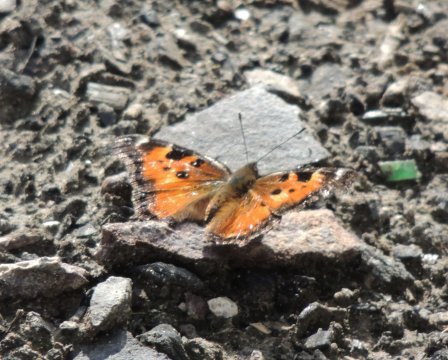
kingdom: Animalia
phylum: Arthropoda
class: Insecta
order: Lepidoptera
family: Nymphalidae
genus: Nymphalis
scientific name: Nymphalis californica
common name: California Tortoiseshell
